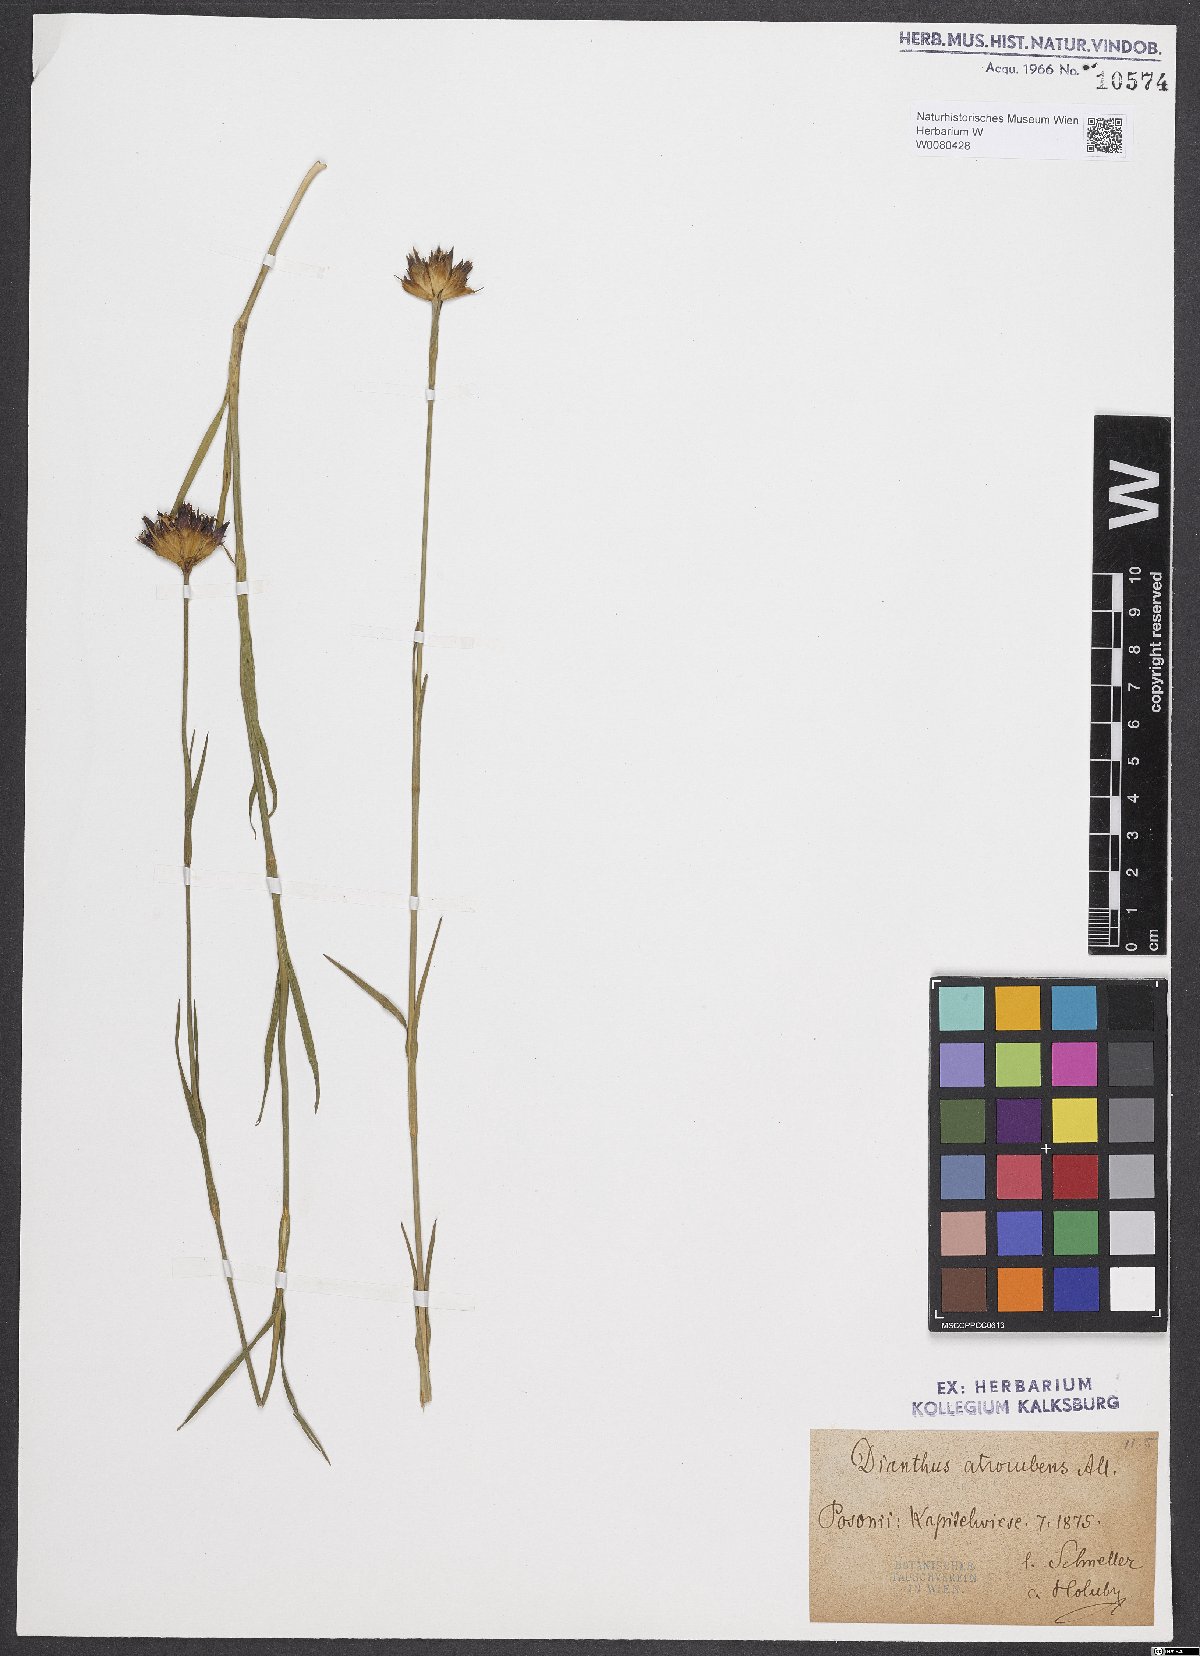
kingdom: Plantae
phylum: Tracheophyta
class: Magnoliopsida
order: Caryophyllales
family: Caryophyllaceae
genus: Dianthus
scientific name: Dianthus carthusianorum
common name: Carthusian pink
